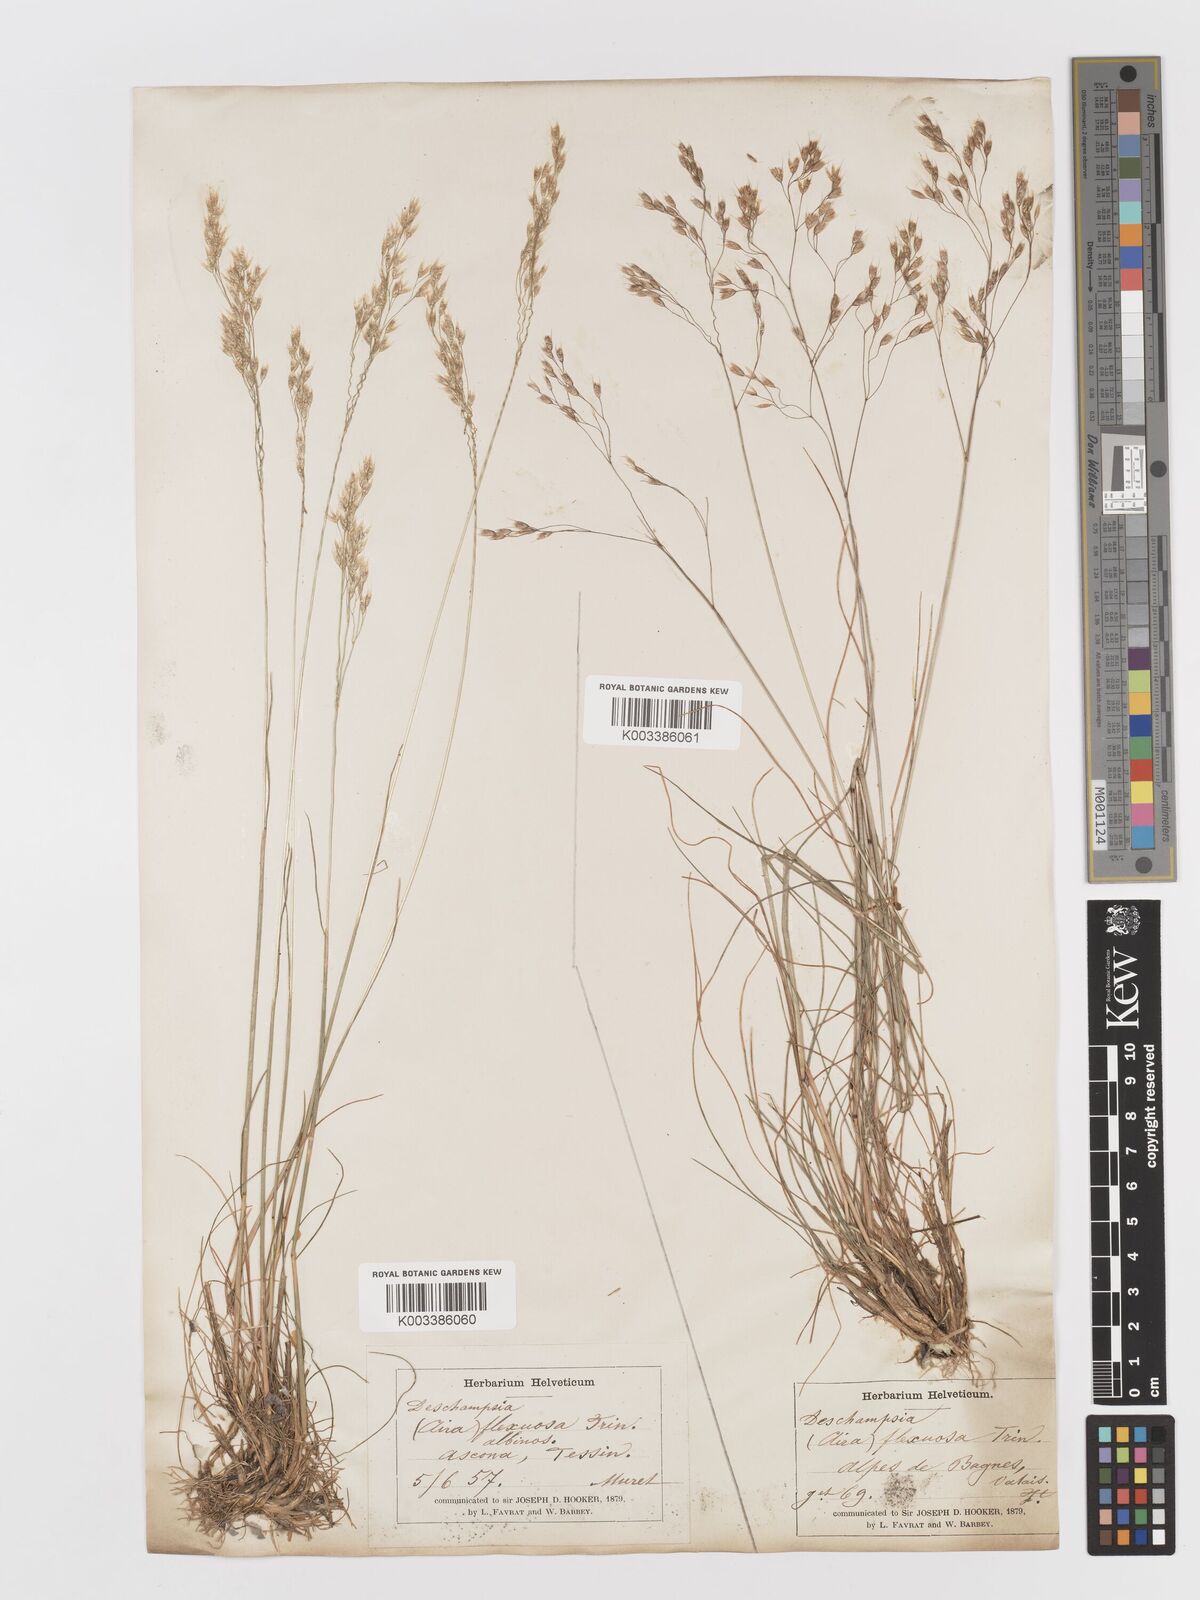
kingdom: Plantae
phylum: Tracheophyta
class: Liliopsida
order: Poales
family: Poaceae
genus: Avenella
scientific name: Avenella flexuosa
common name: Wavy hairgrass
